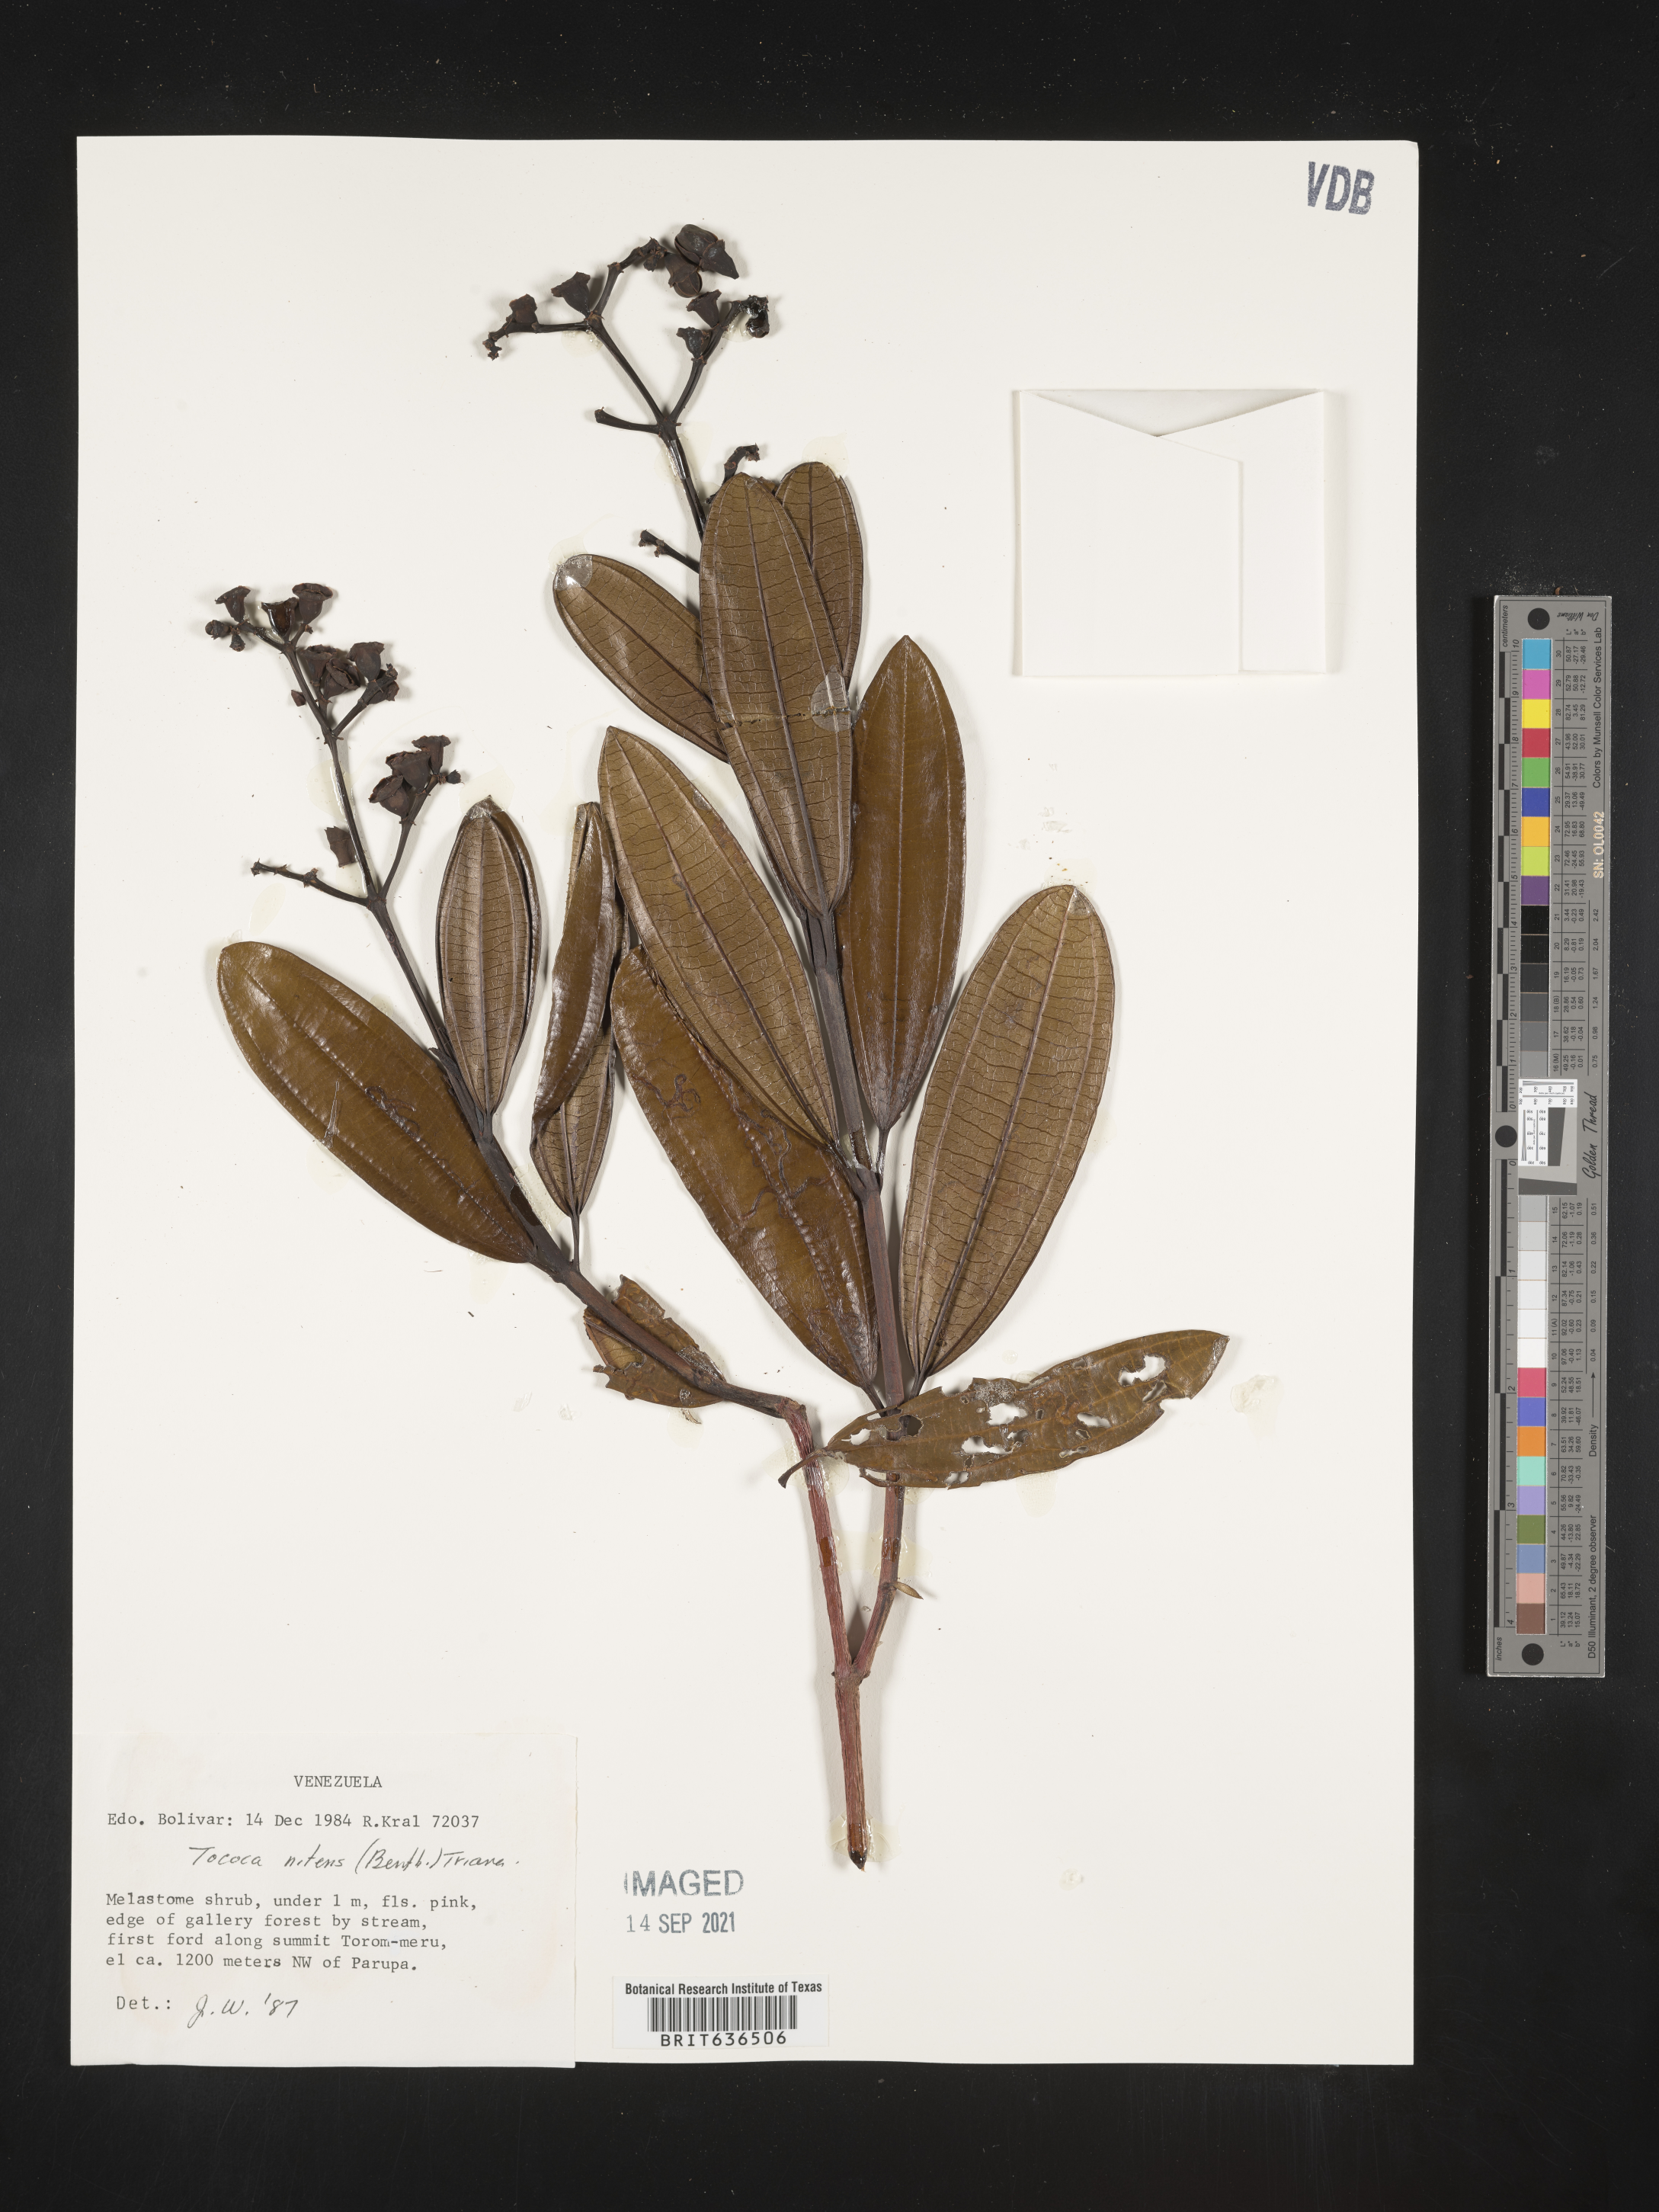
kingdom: Plantae
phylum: Tracheophyta
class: Magnoliopsida
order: Myrtales
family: Melastomataceae
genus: Tibouchina
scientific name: Tibouchina
